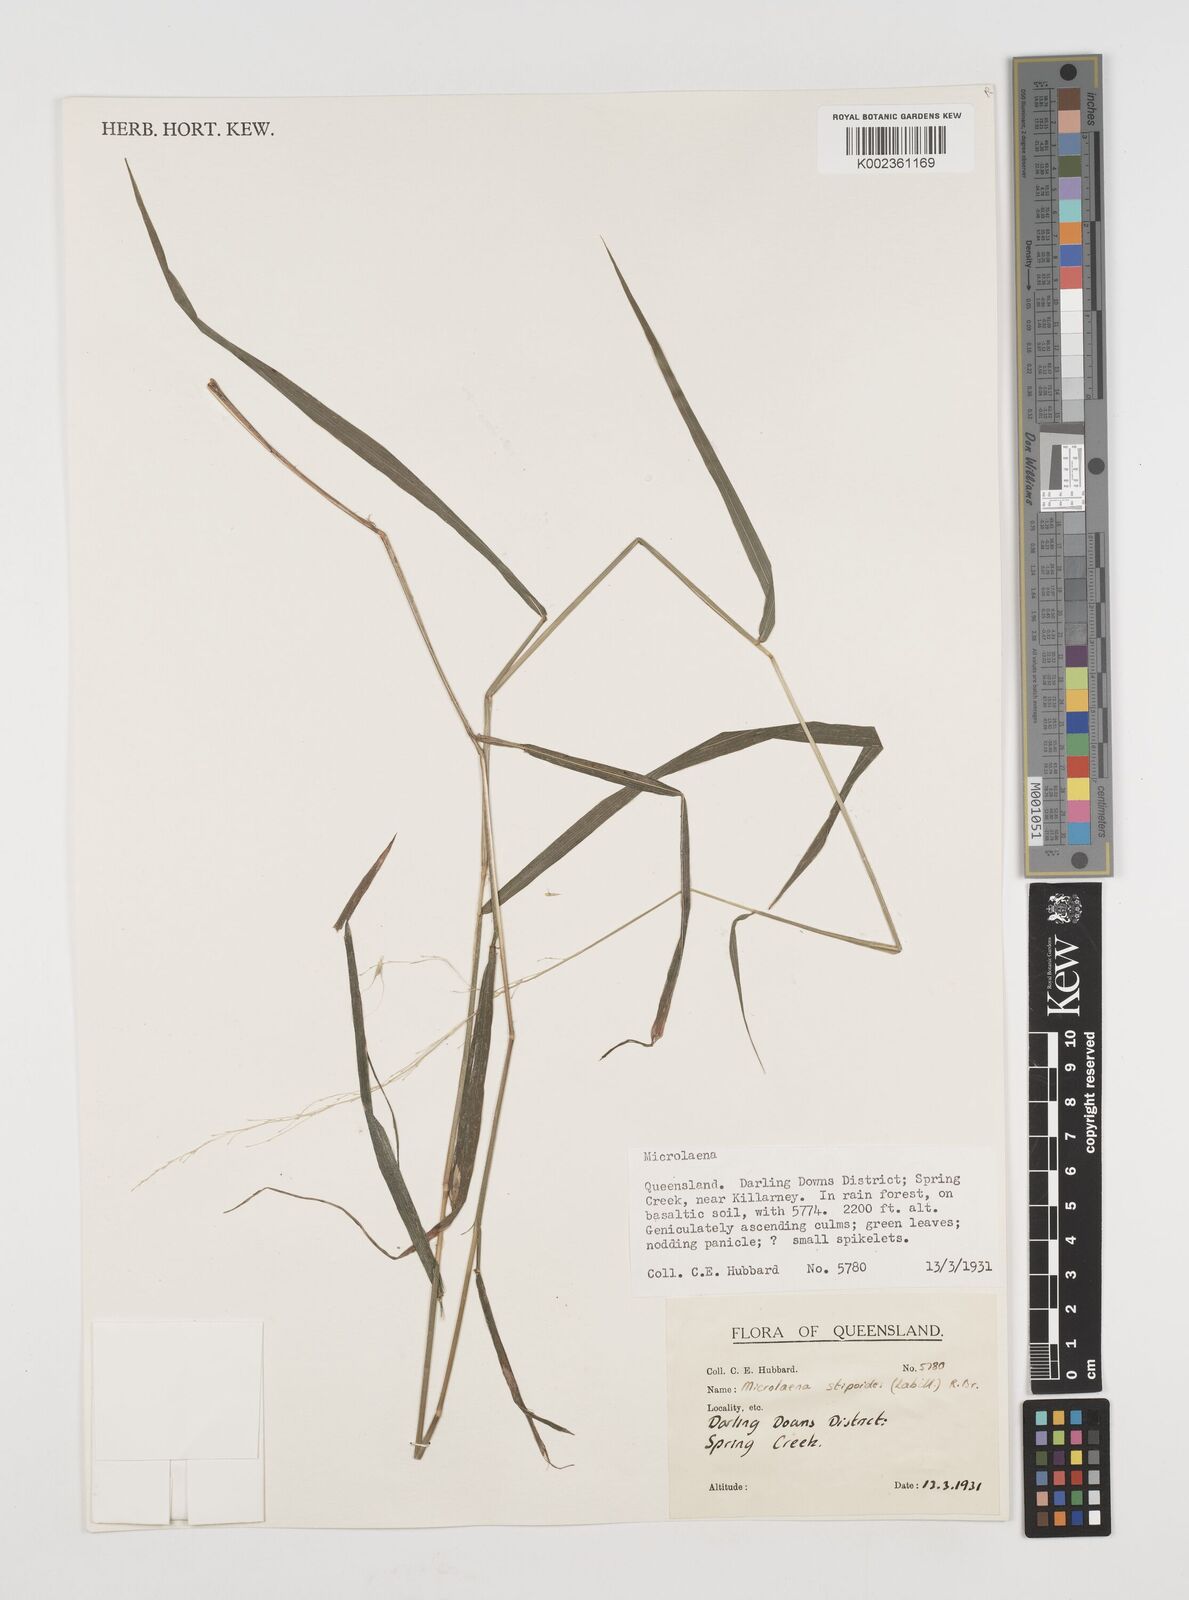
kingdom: Plantae
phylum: Tracheophyta
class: Liliopsida
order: Poales
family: Poaceae
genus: Microlaena
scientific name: Microlaena stipoides
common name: Meadow ricegrass
